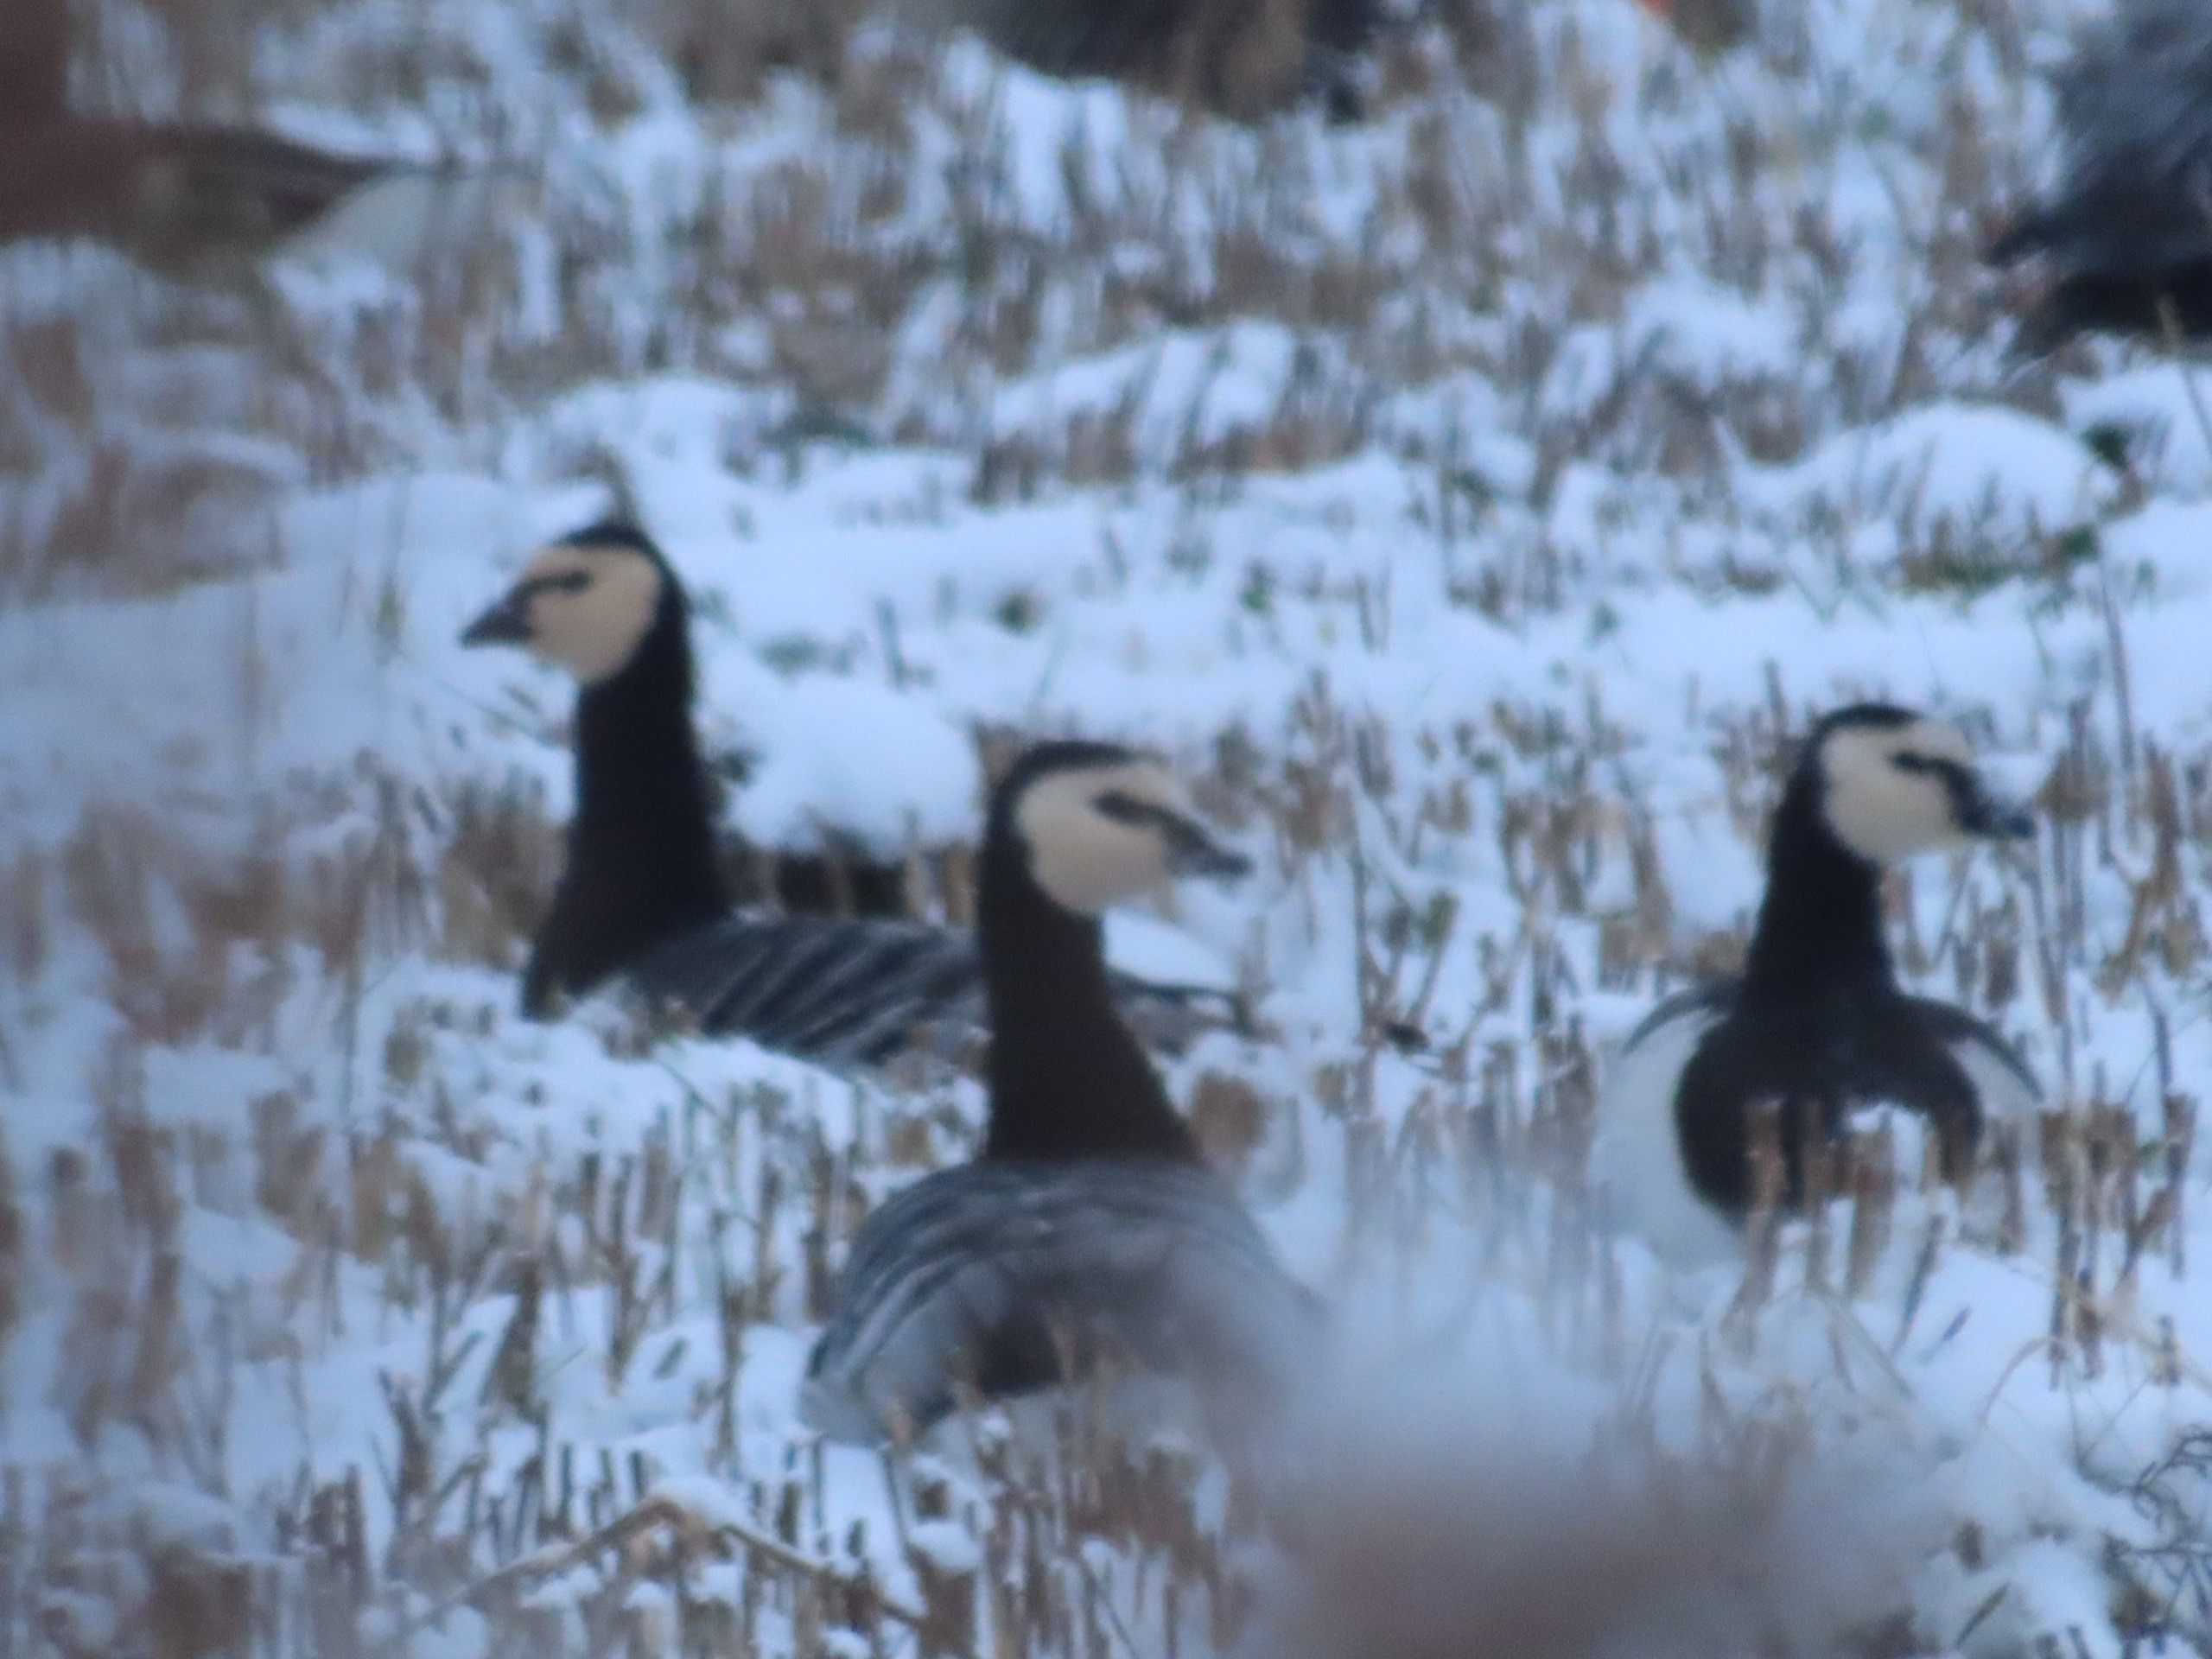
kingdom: Animalia
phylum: Chordata
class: Aves
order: Anseriformes
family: Anatidae
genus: Branta
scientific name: Branta leucopsis
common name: Bramgås
